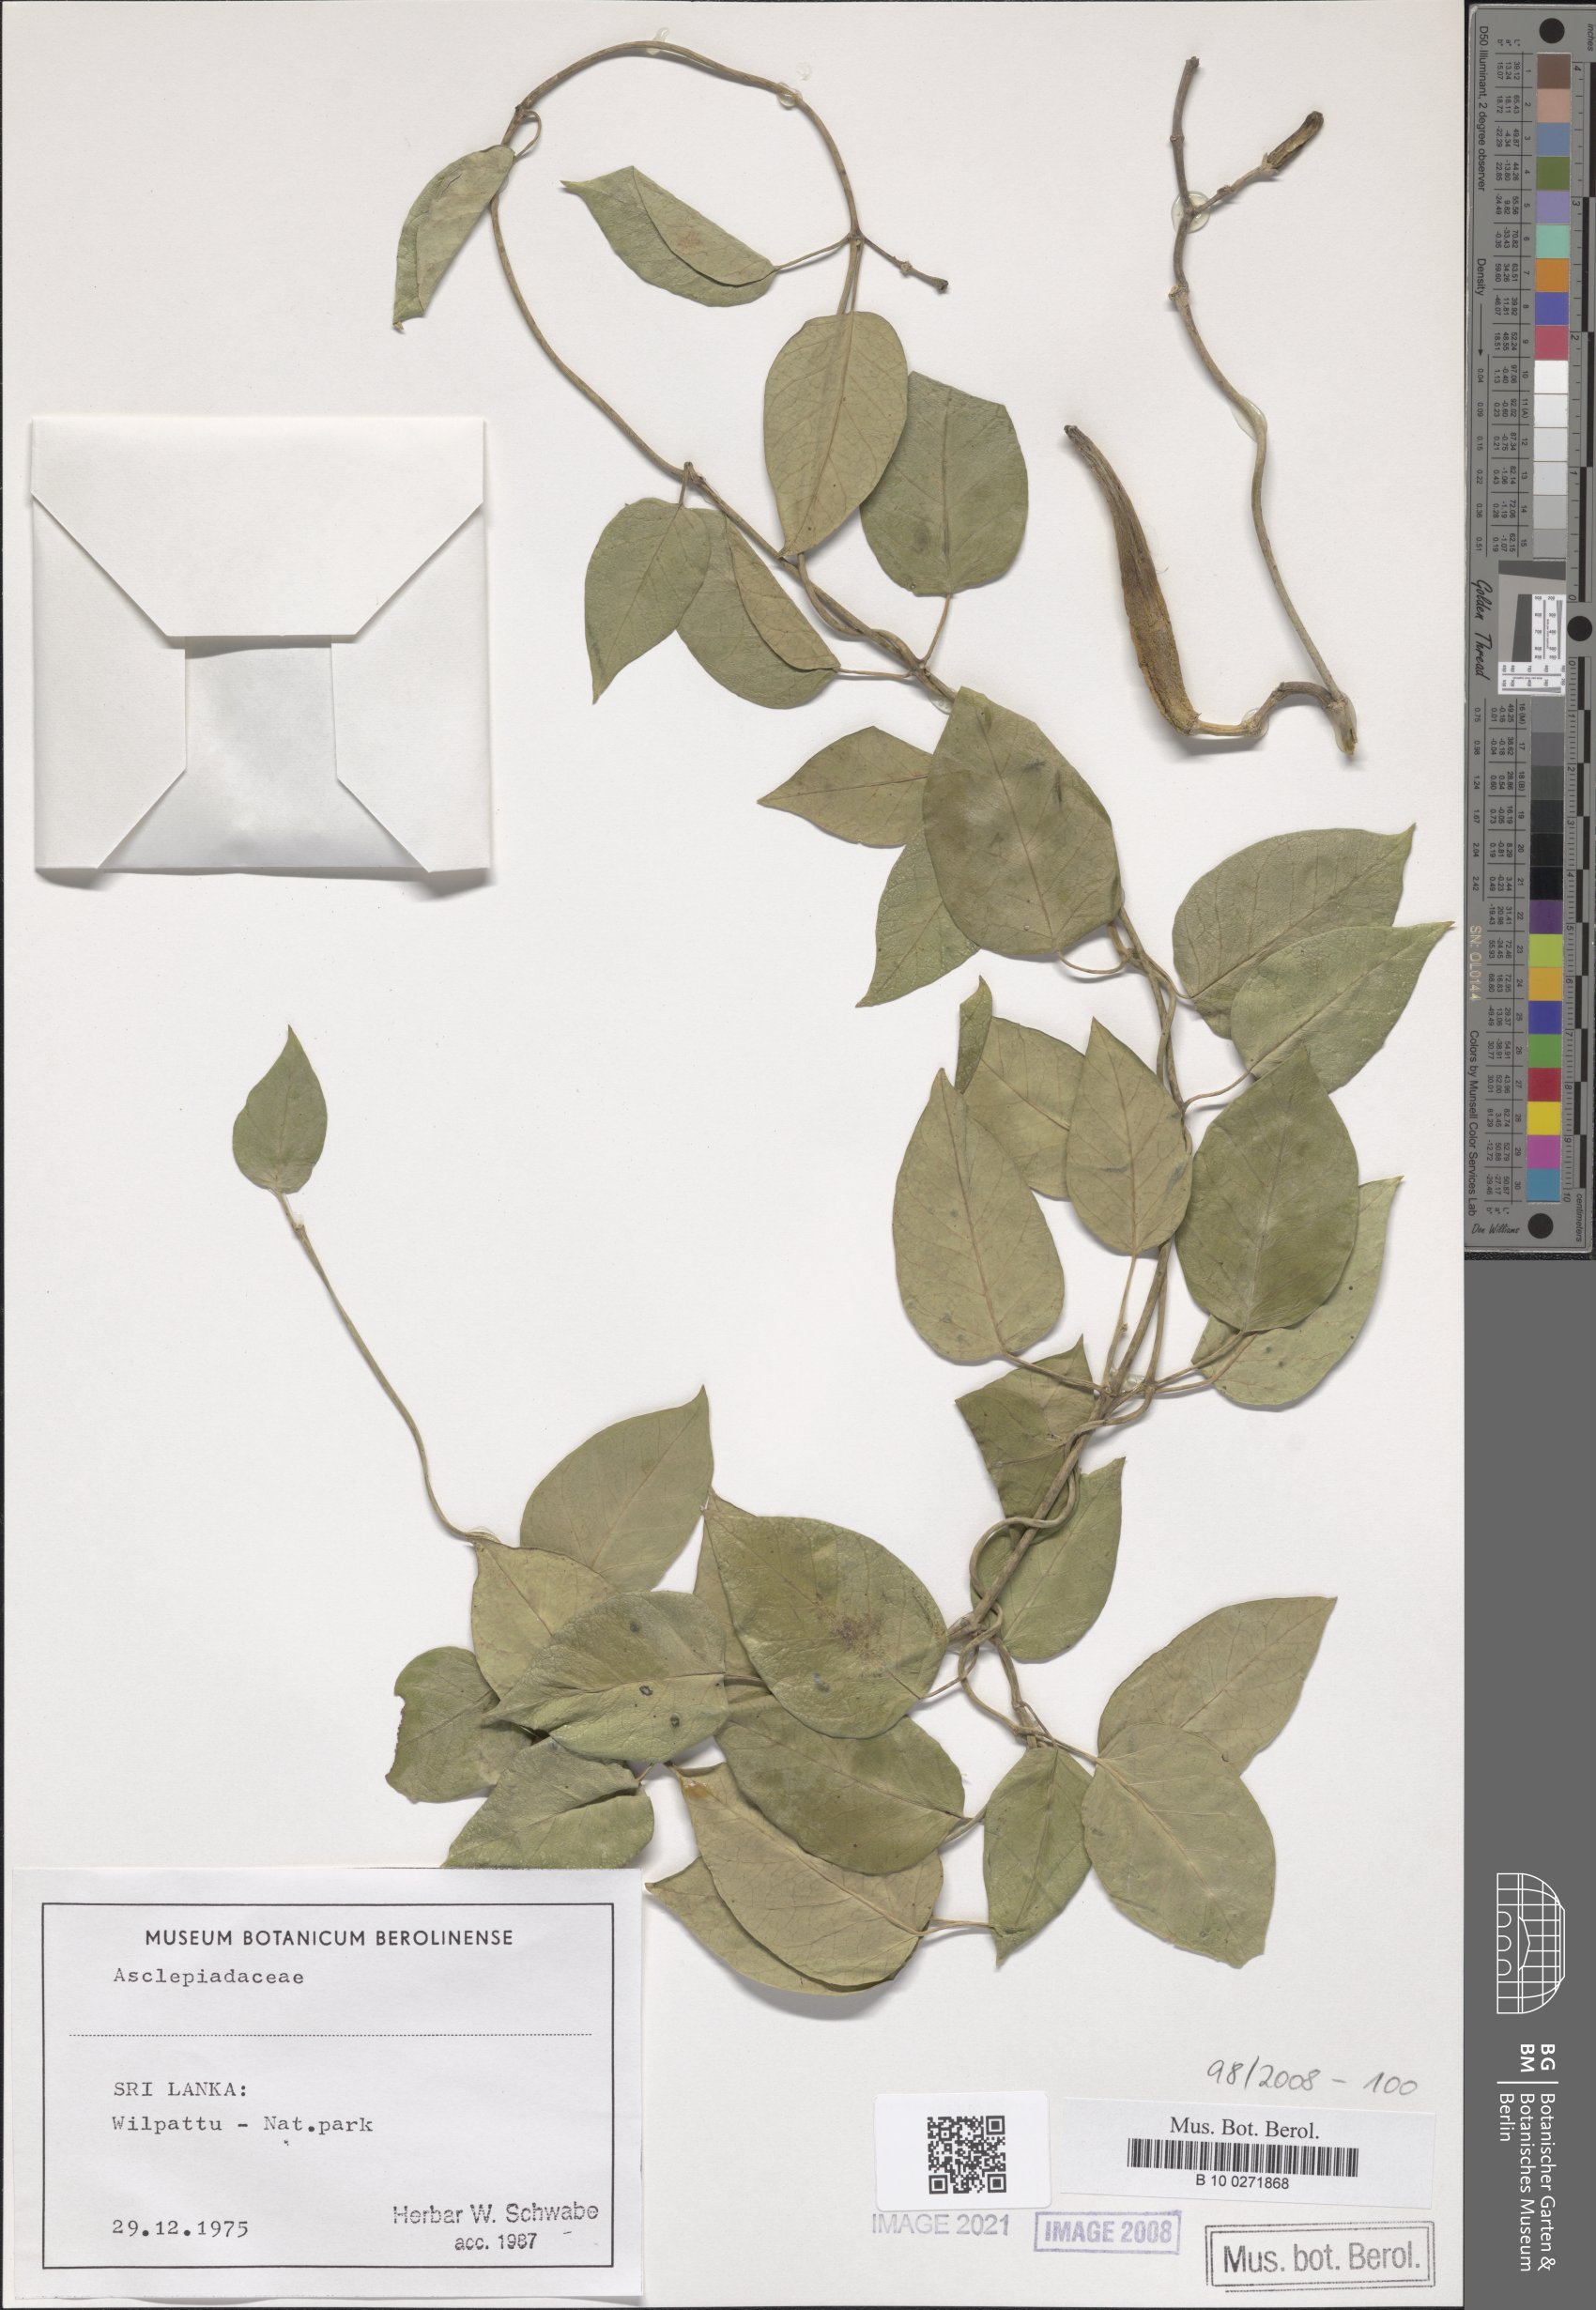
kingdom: Plantae
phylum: Tracheophyta
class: Magnoliopsida
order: Gentianales
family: Asclepiadaceae
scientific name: Asclepiadaceae
